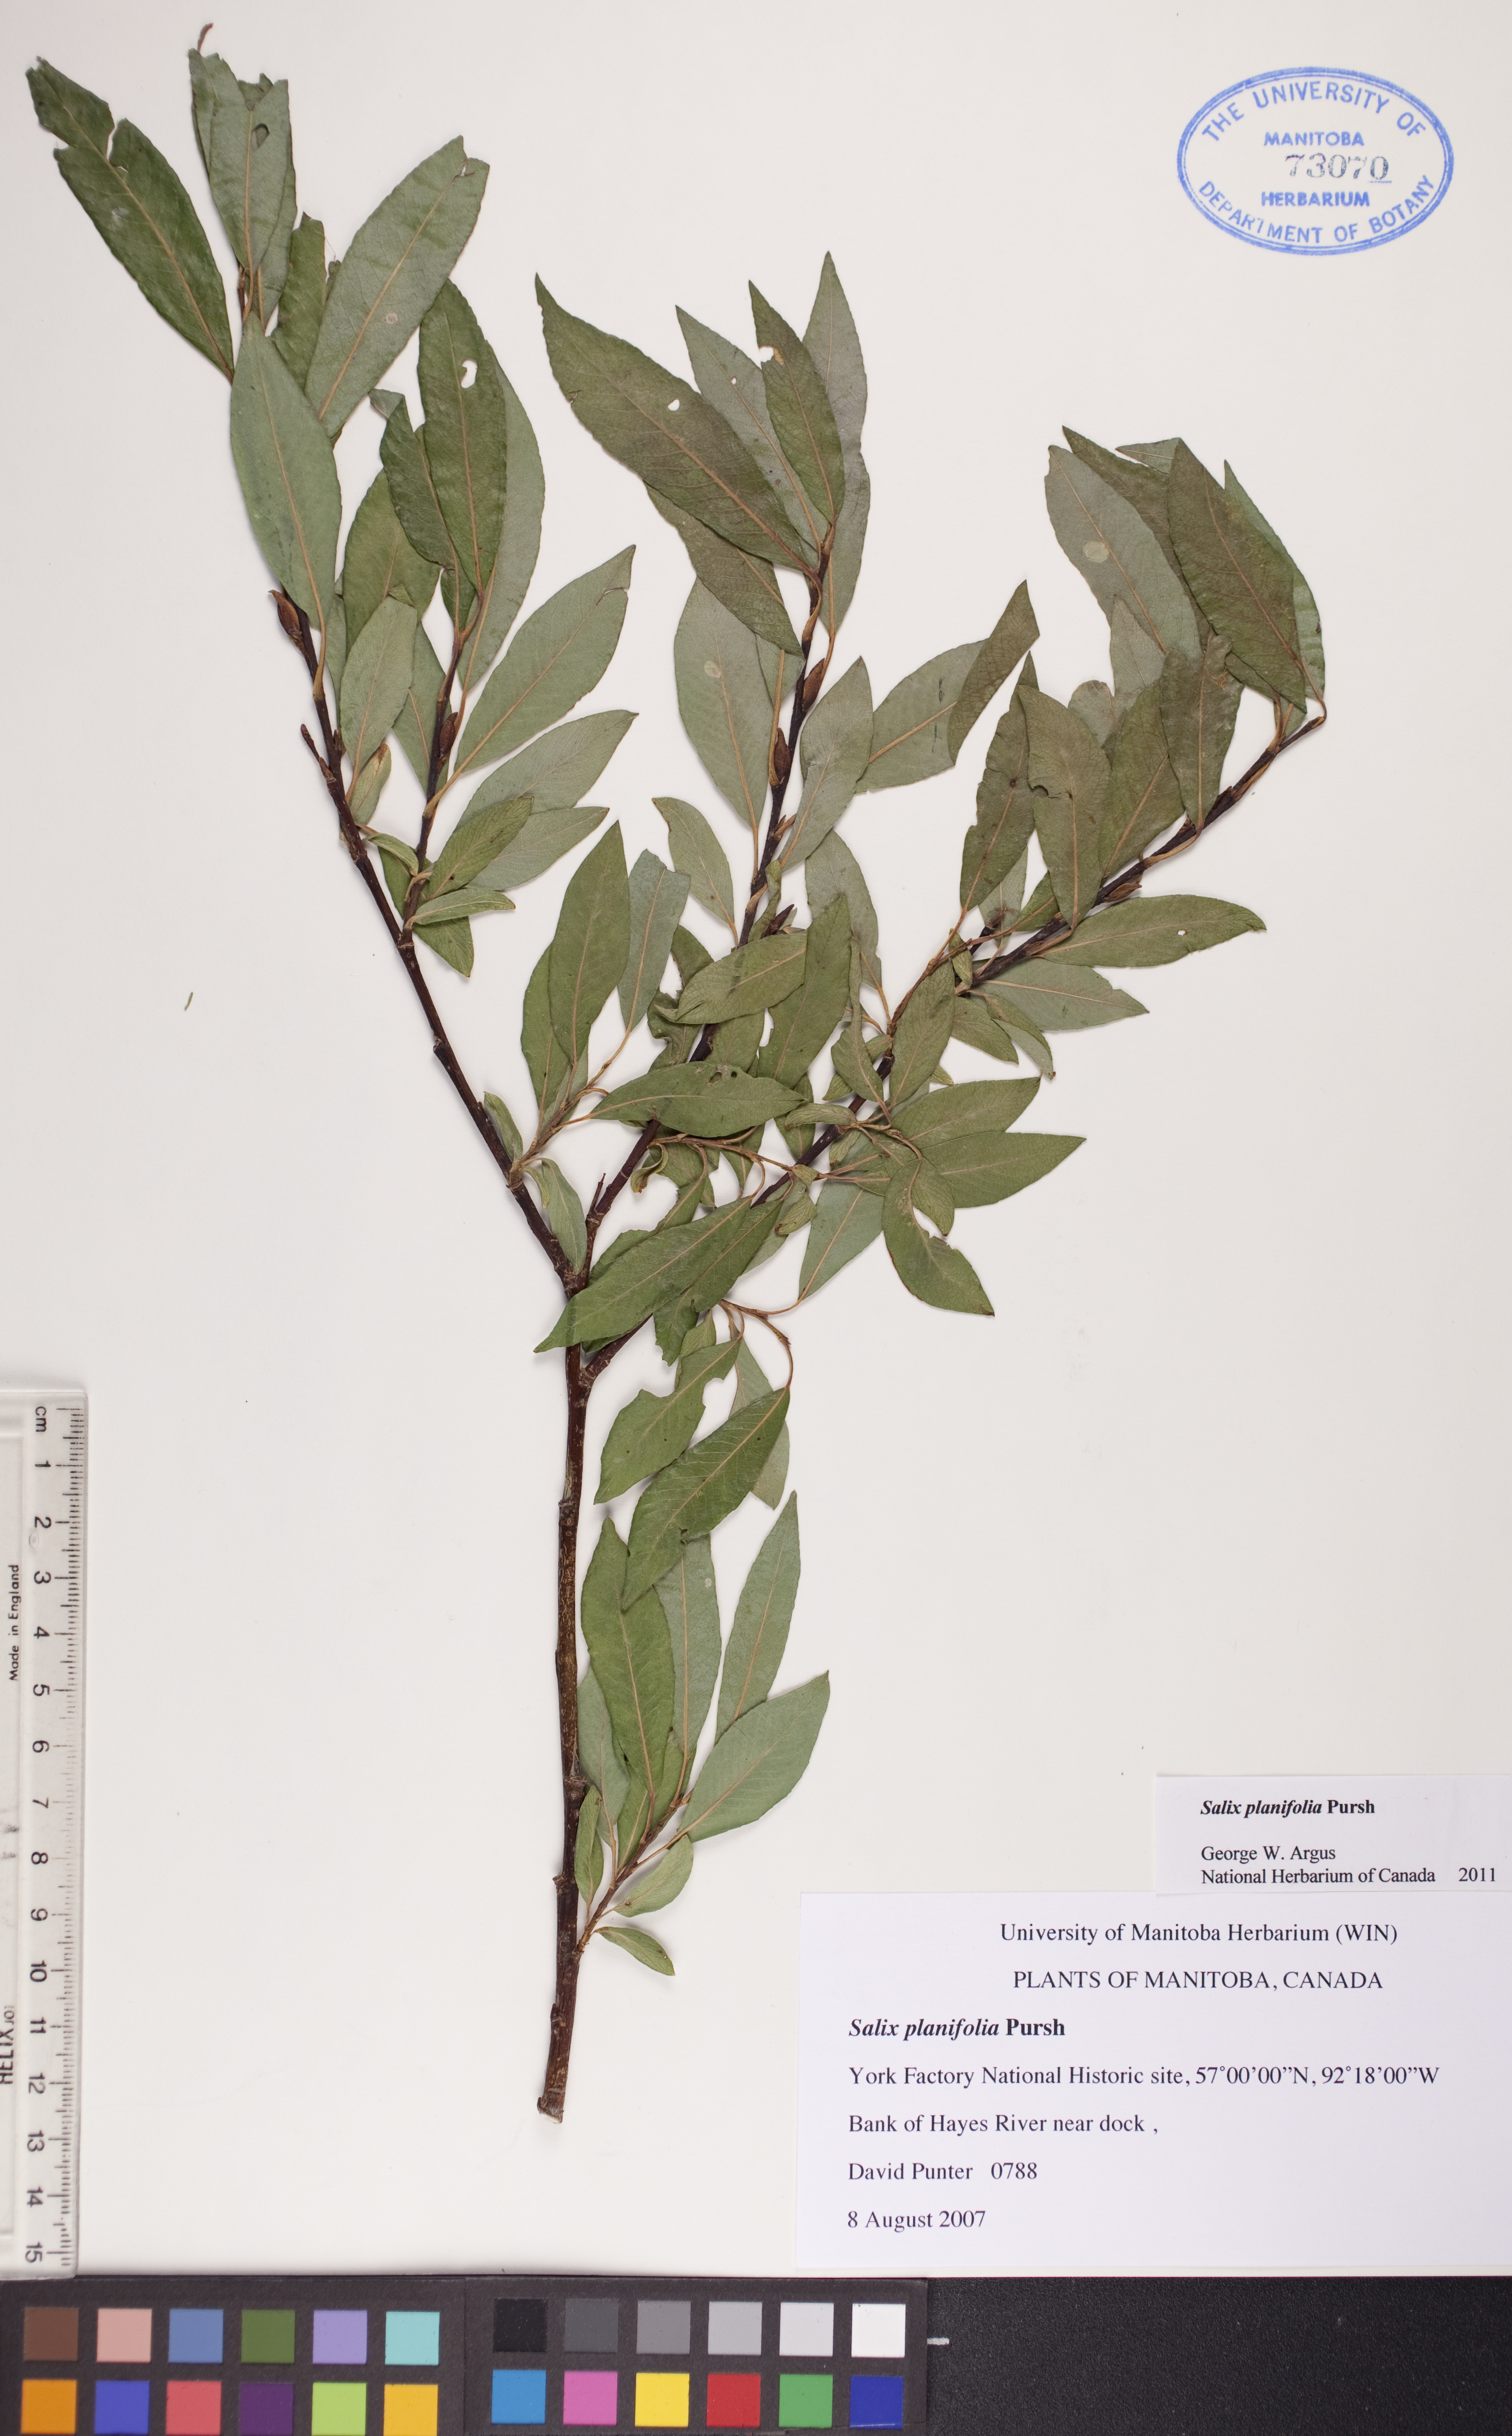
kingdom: Plantae
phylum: Tracheophyta
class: Magnoliopsida
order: Malpighiales
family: Salicaceae
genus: Salix
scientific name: Salix planifolia
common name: Mountain willow
